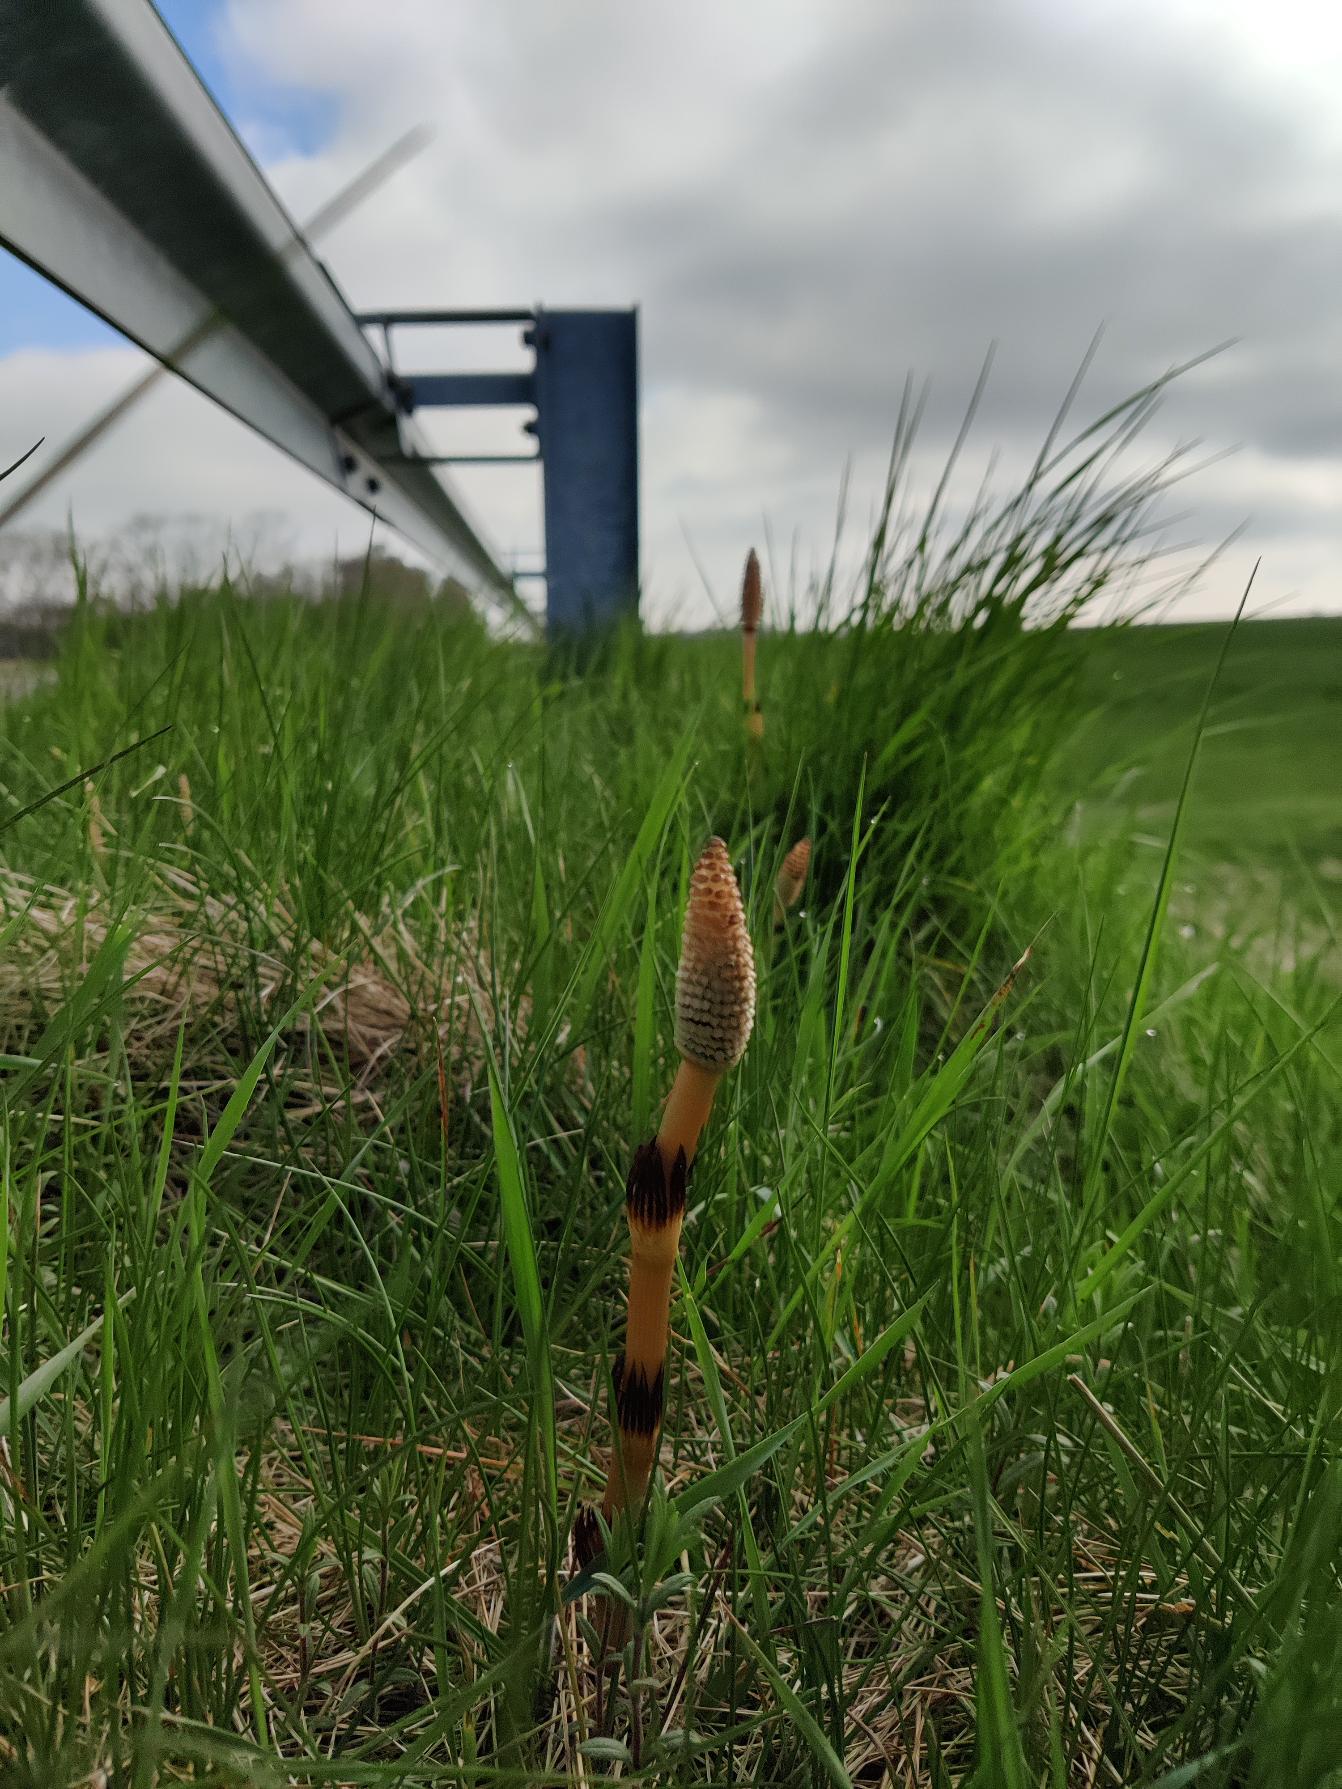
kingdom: Plantae
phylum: Tracheophyta
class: Polypodiopsida
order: Equisetales
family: Equisetaceae
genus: Equisetum
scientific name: Equisetum arvense
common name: Ager-padderok
